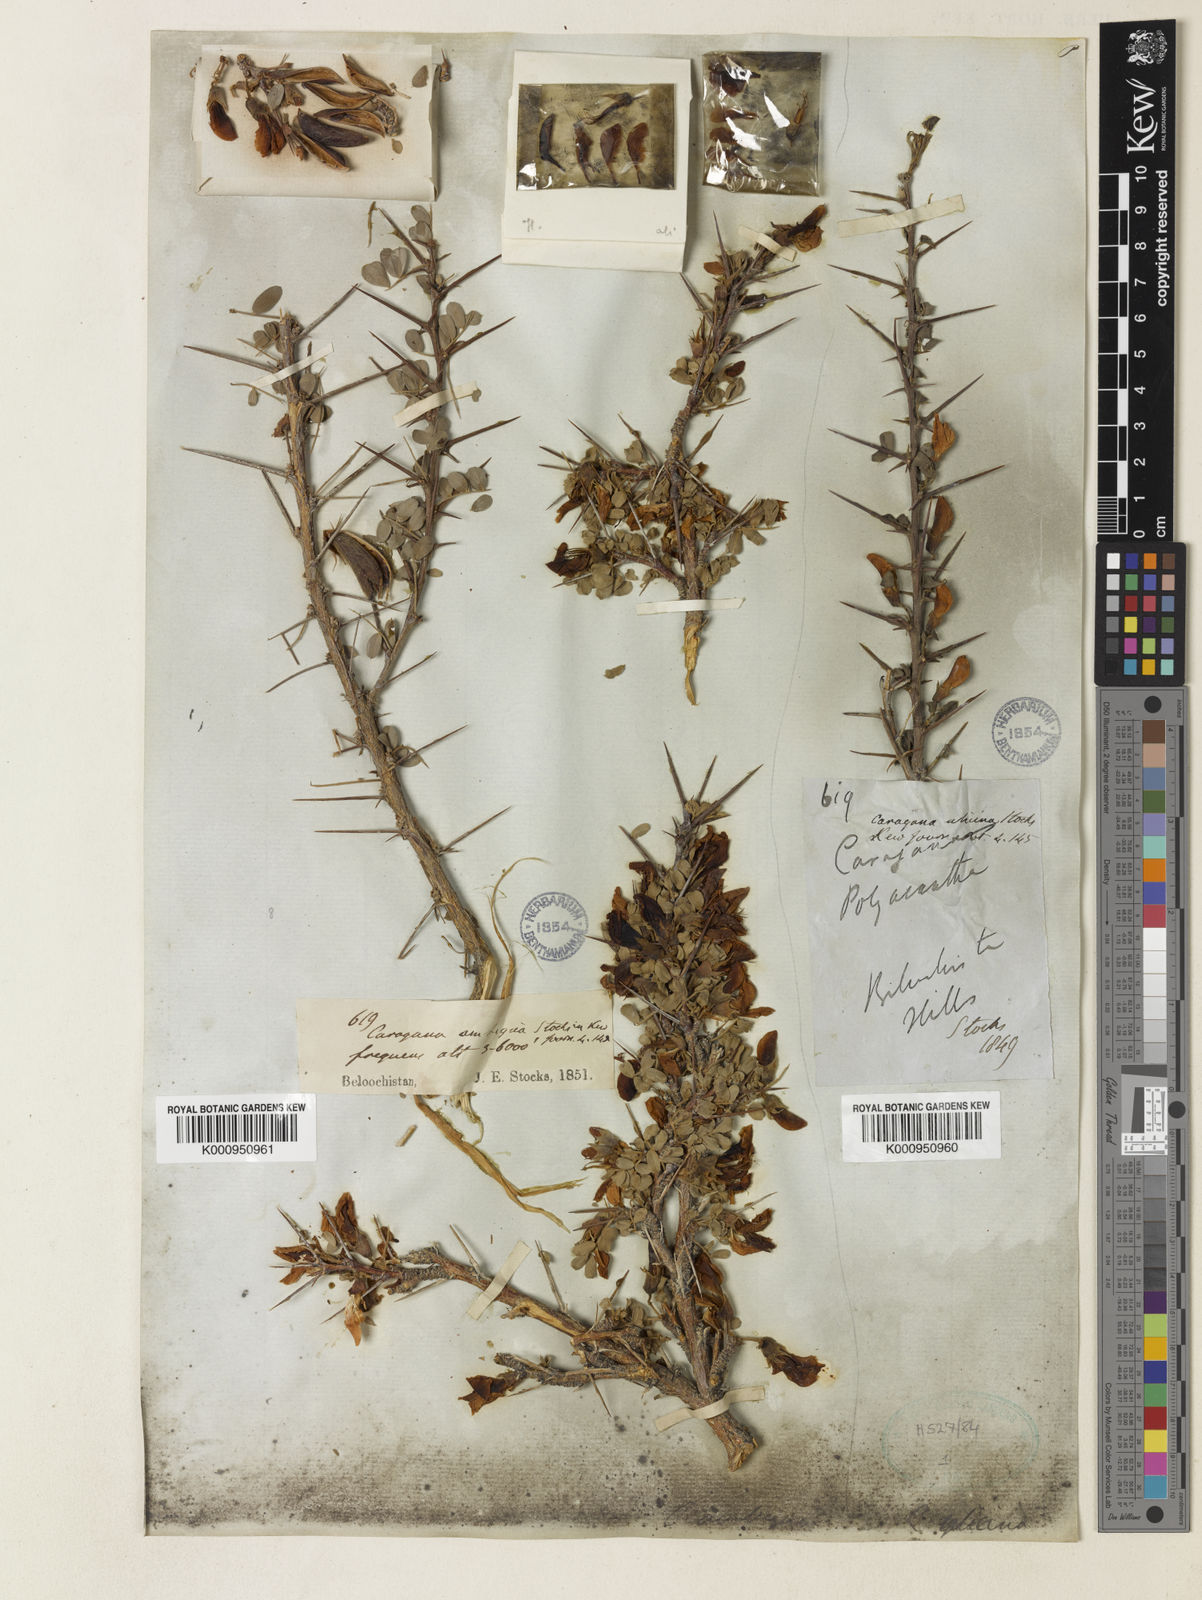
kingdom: Plantae
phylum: Tracheophyta
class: Magnoliopsida
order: Fabales
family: Fabaceae
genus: Caragana
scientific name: Caragana ambigua
